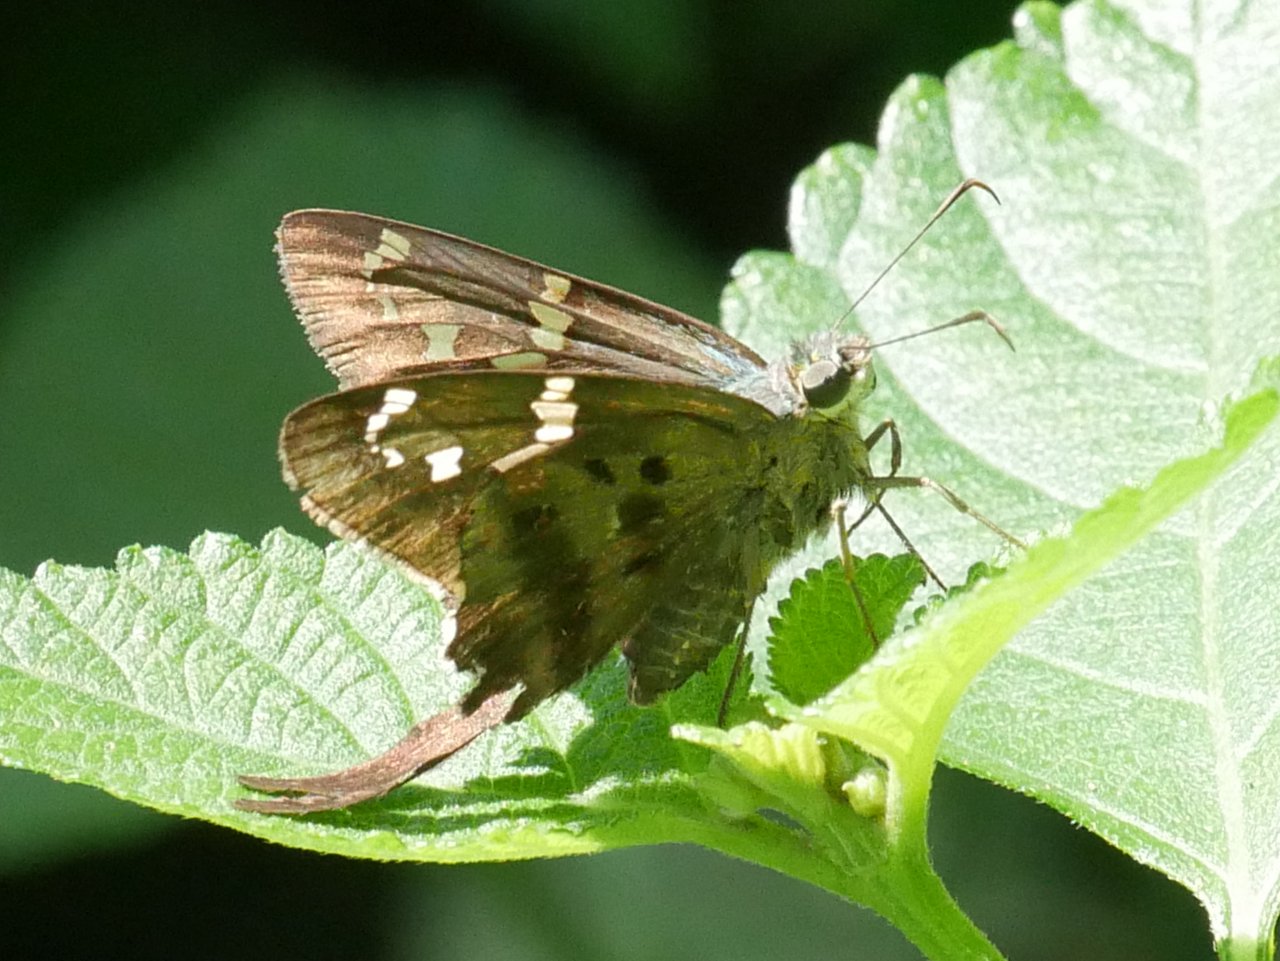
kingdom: Animalia
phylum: Arthropoda
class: Insecta
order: Lepidoptera
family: Hesperiidae
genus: Urbanus
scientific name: Urbanus proteus
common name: Long-tailed Skipper
